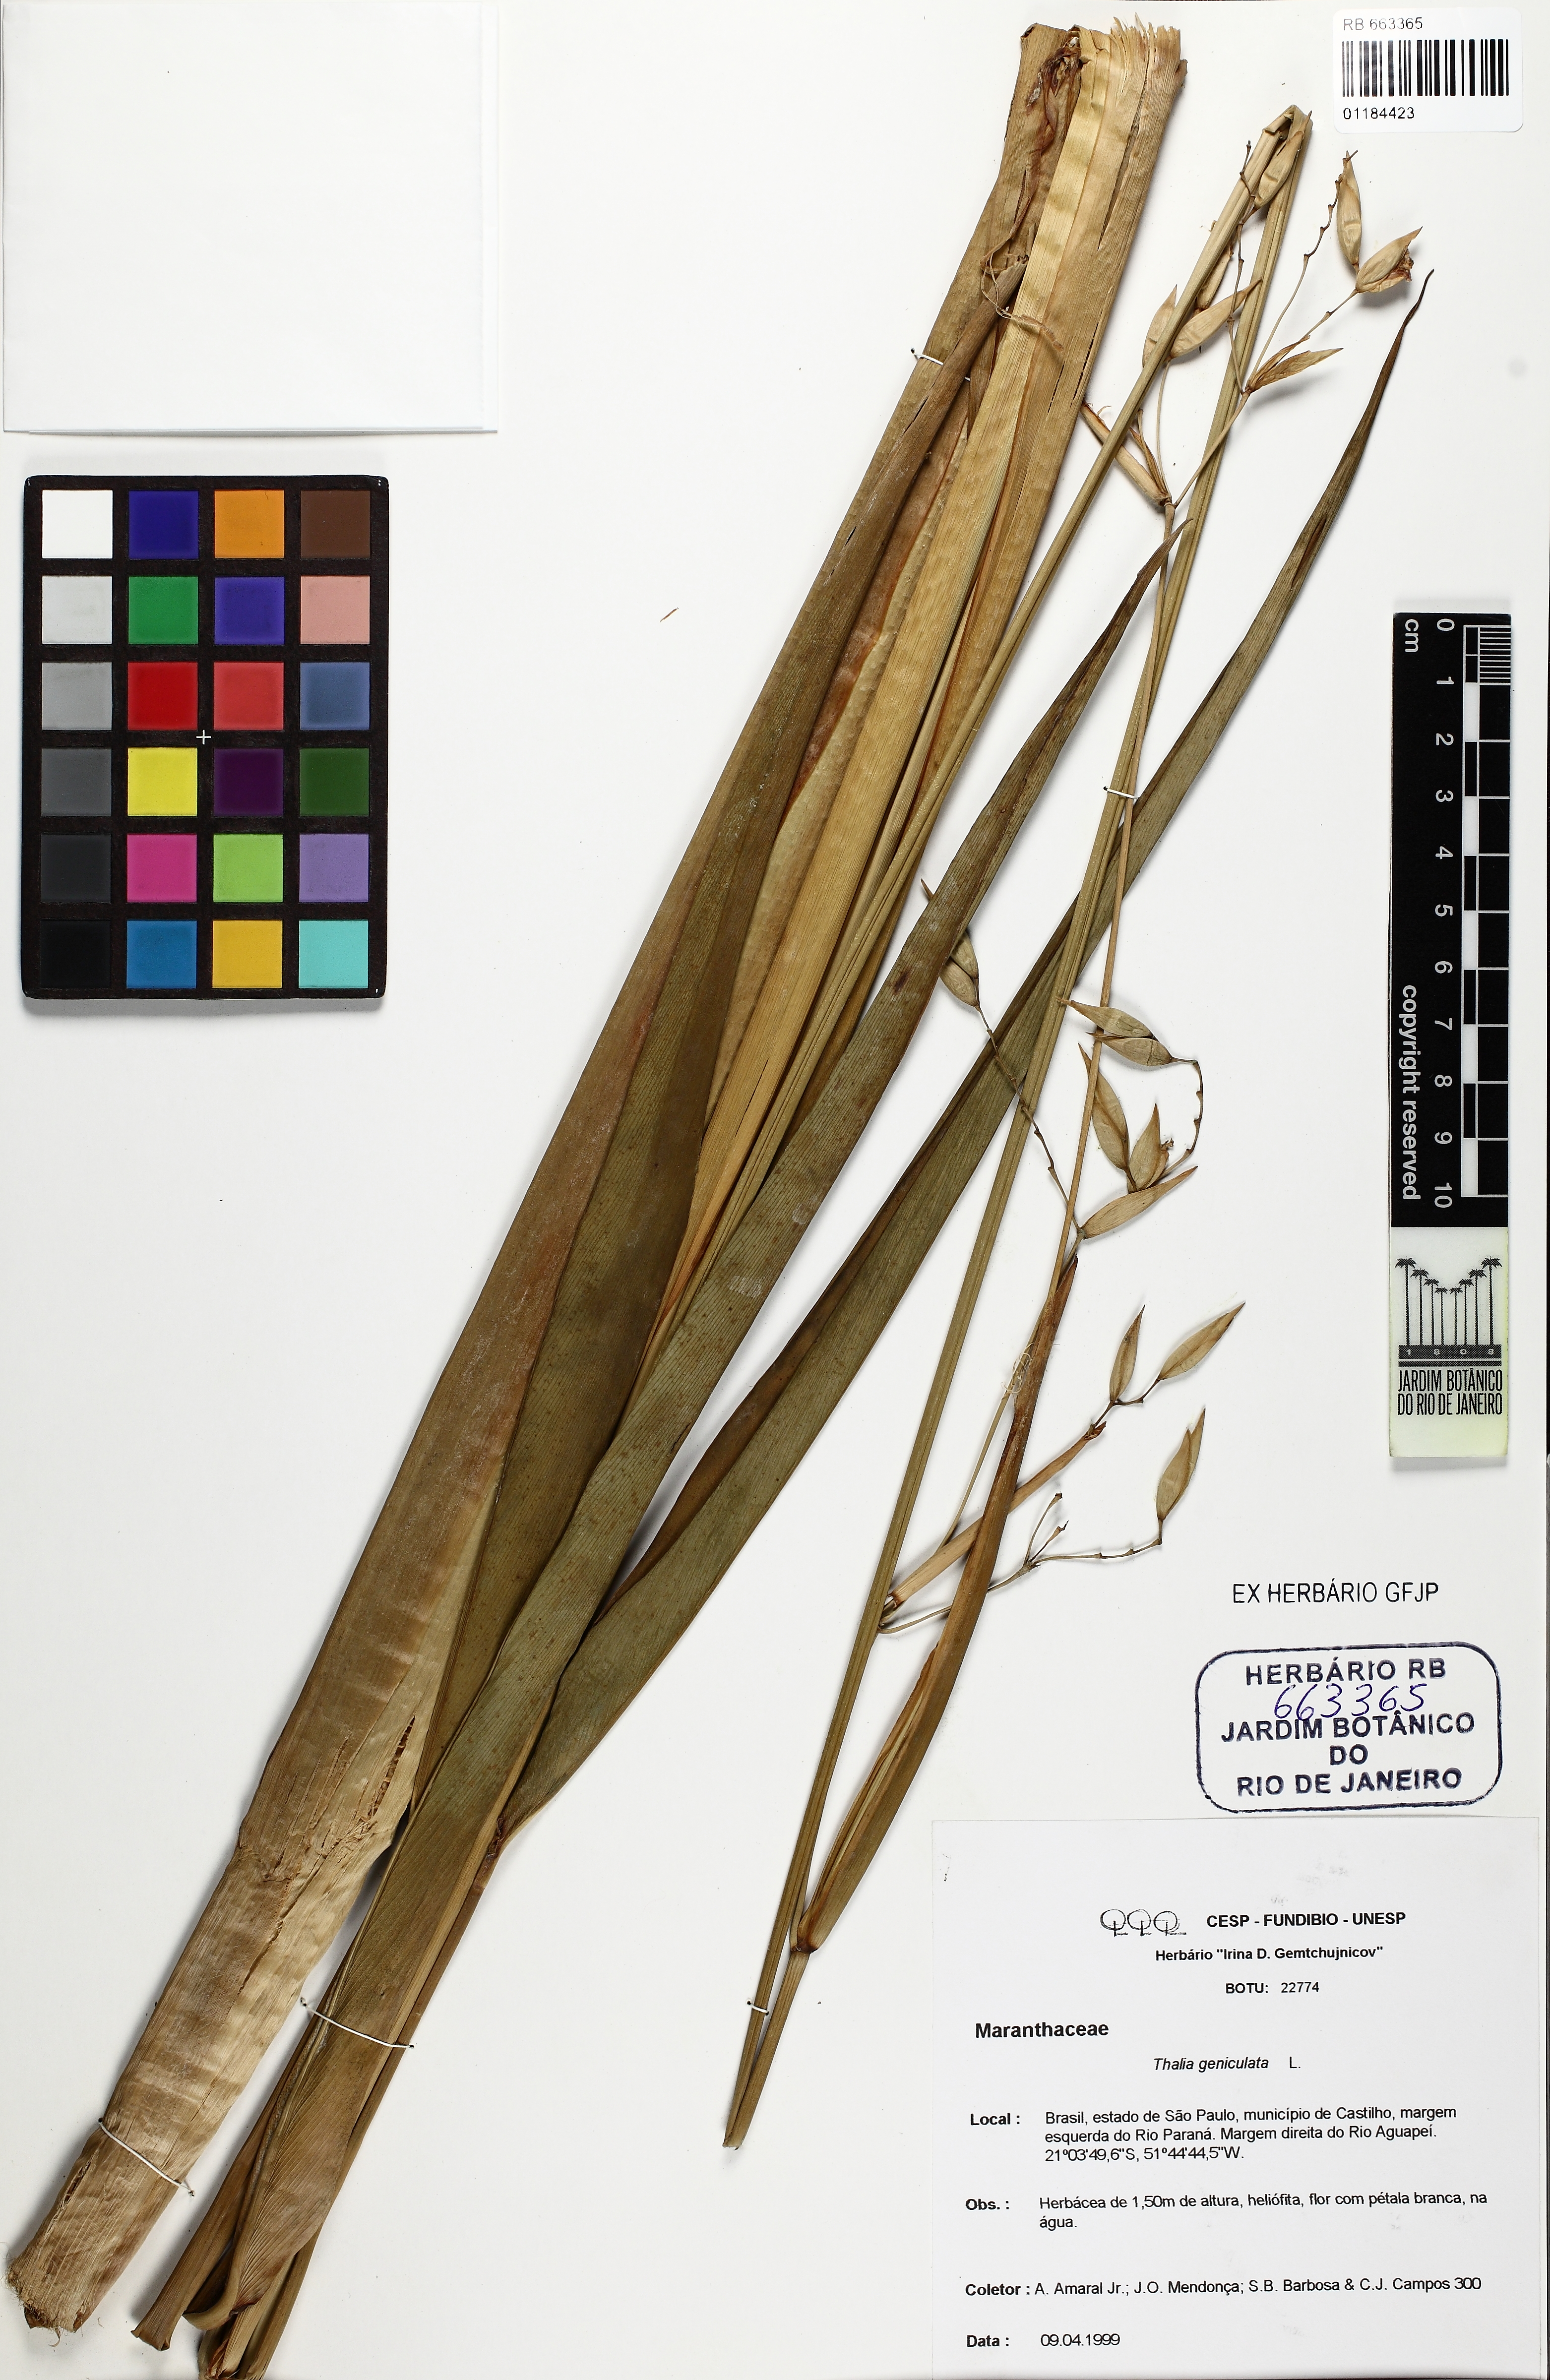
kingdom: Plantae
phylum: Tracheophyta
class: Liliopsida
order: Zingiberales
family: Marantaceae
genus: Thalia
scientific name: Thalia geniculata
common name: Arrowroot
